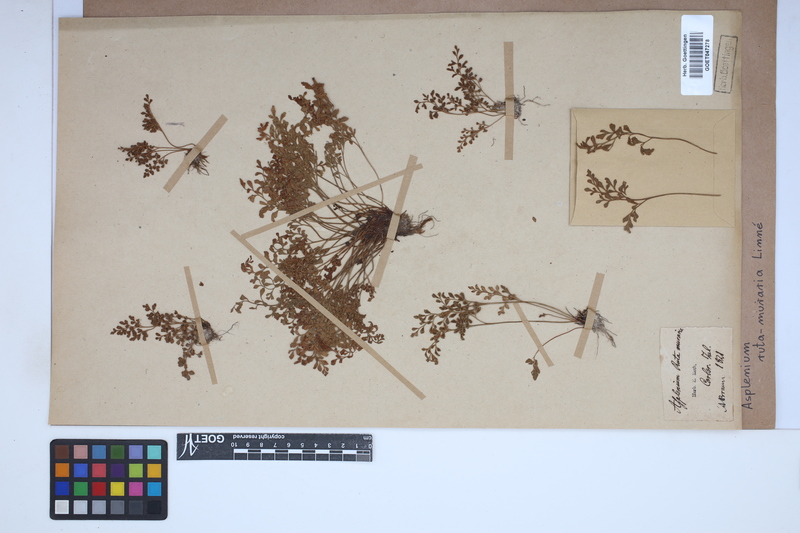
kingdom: Plantae
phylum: Tracheophyta
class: Polypodiopsida
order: Polypodiales
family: Aspleniaceae
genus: Asplenium
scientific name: Asplenium ruta-muraria
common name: Wall-rue
